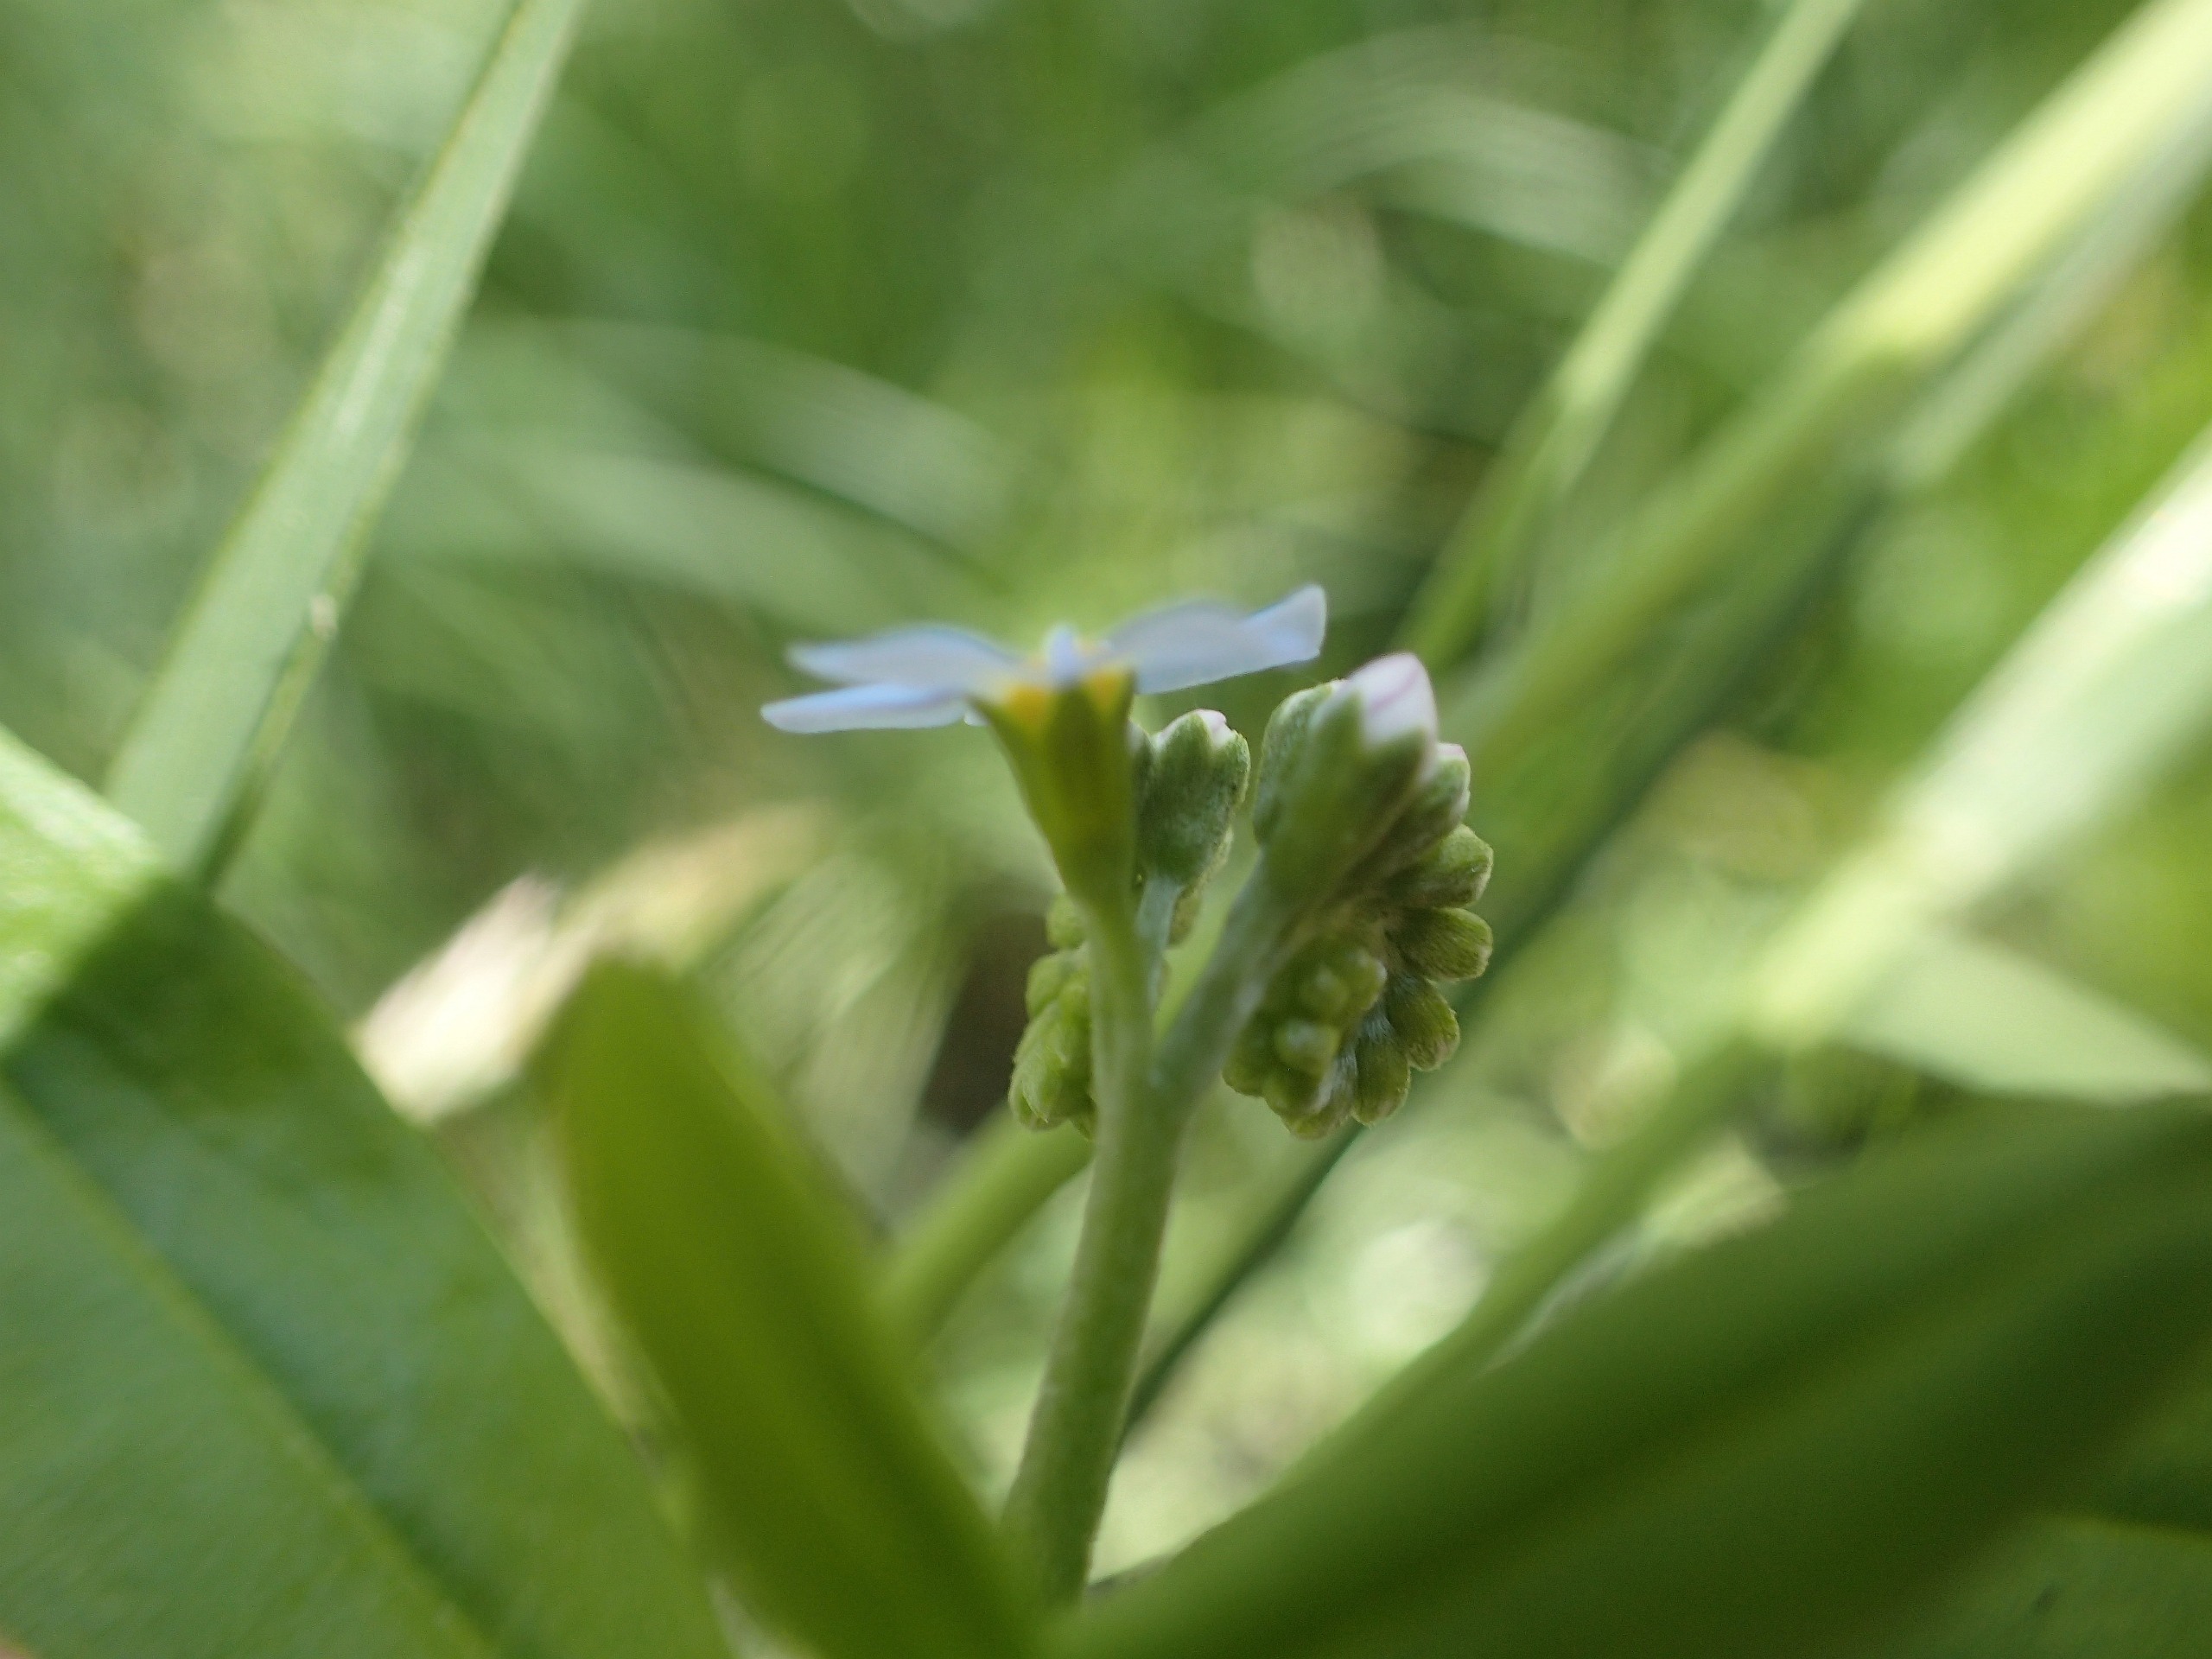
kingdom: Plantae
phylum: Tracheophyta
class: Magnoliopsida
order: Boraginales
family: Boraginaceae
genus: Myosotis
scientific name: Myosotis scorpioides
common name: Eng-forglemmigej
